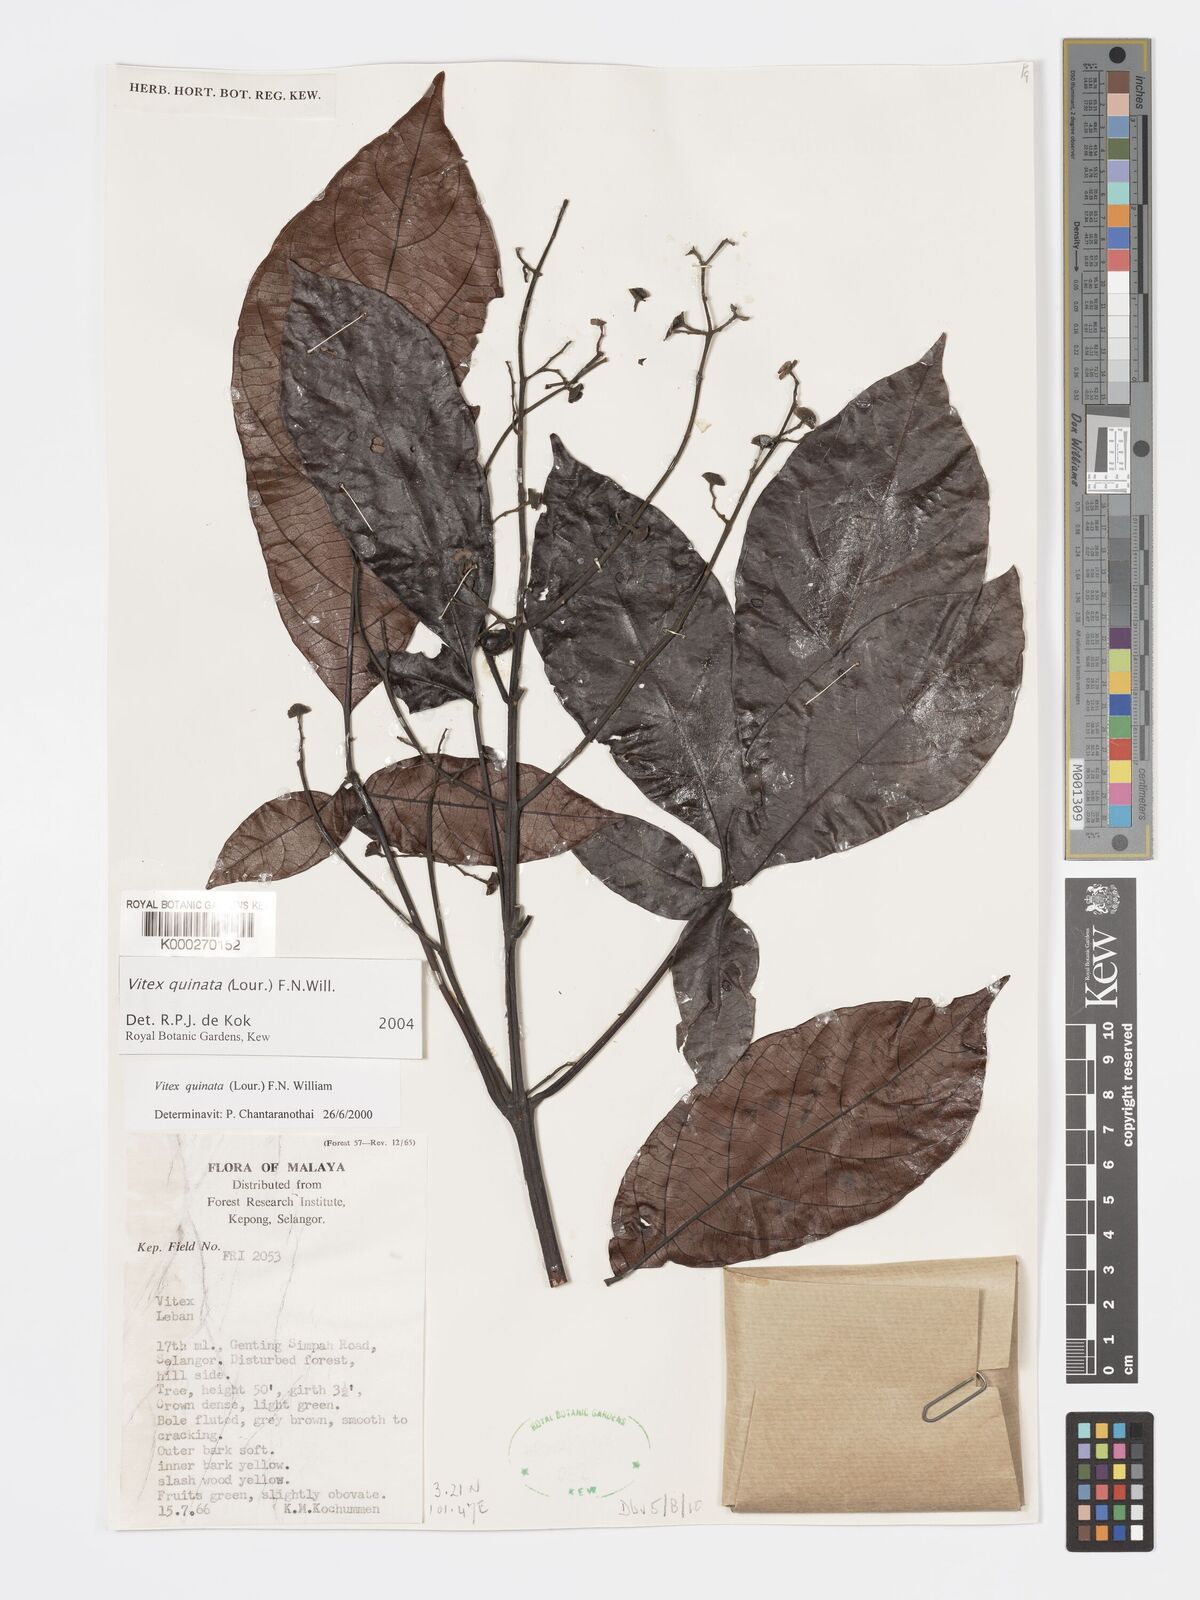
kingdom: Plantae
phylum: Tracheophyta
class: Magnoliopsida
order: Lamiales
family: Lamiaceae
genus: Vitex
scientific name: Vitex quinata
